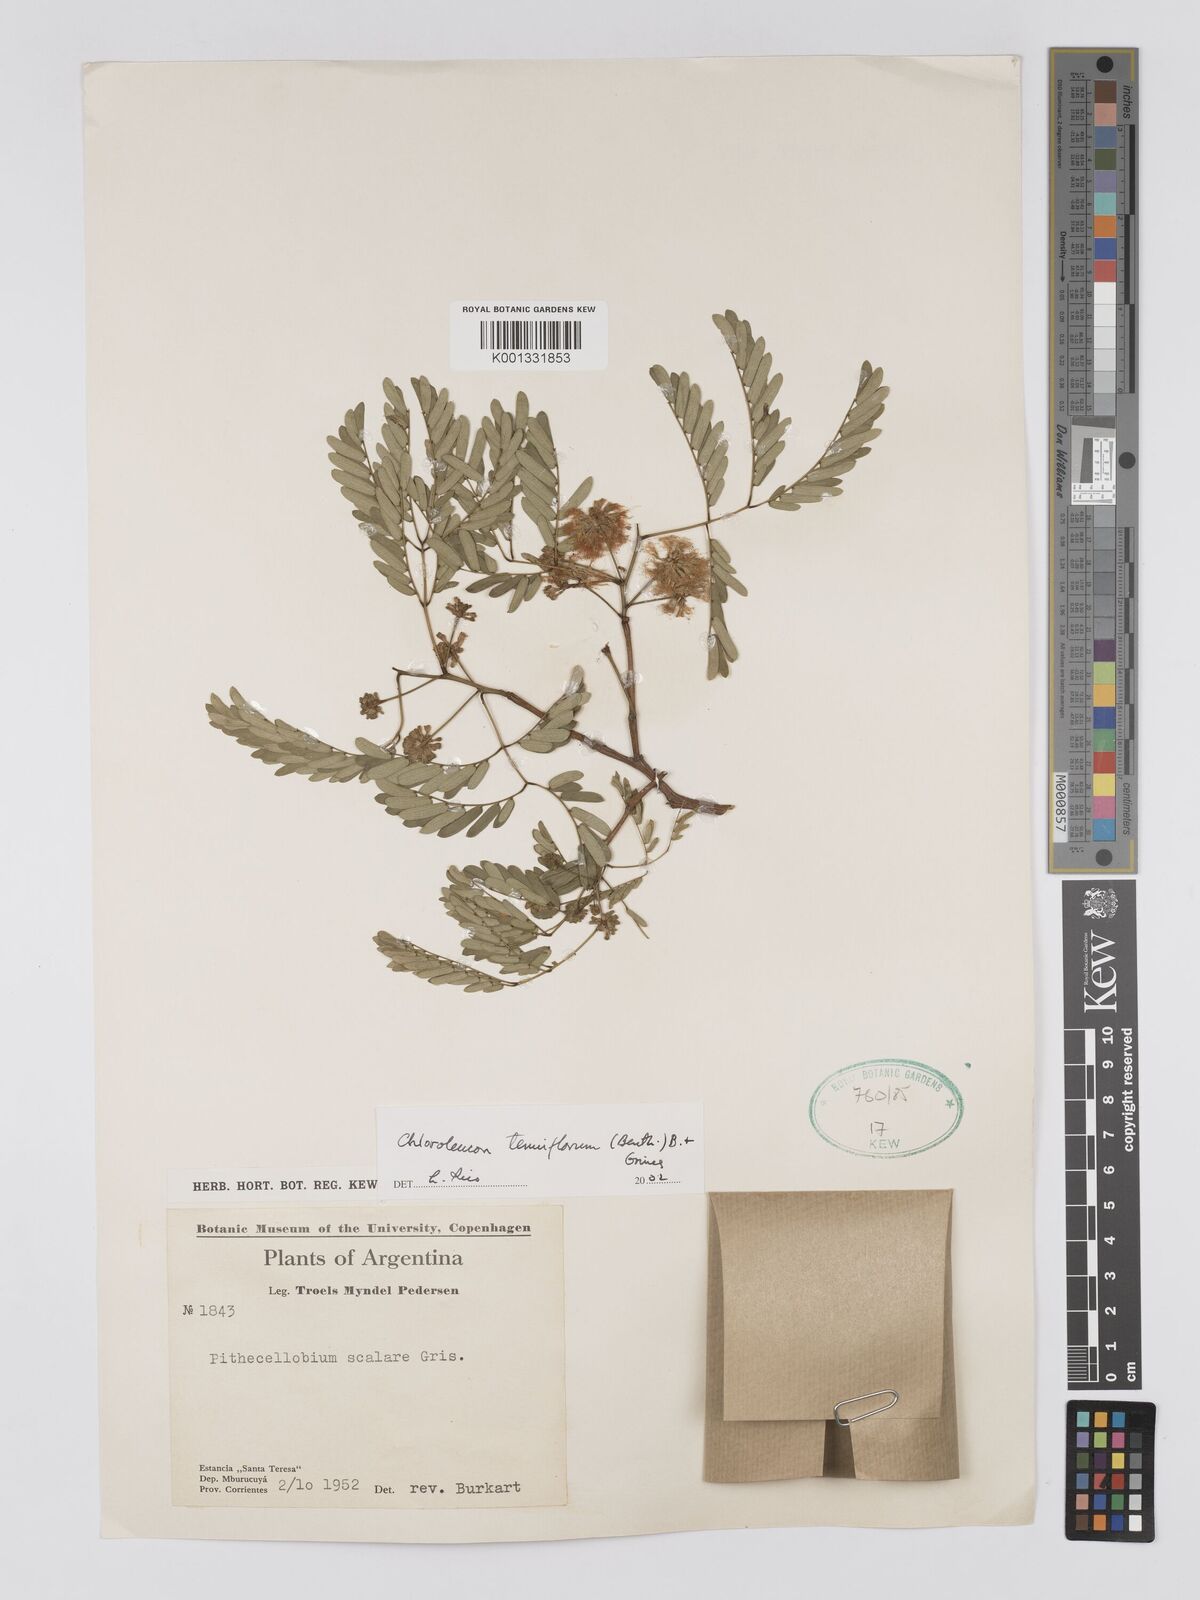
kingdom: Plantae
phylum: Tracheophyta
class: Magnoliopsida
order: Fabales
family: Fabaceae
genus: Chloroleucon
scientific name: Chloroleucon tenuiflorum
